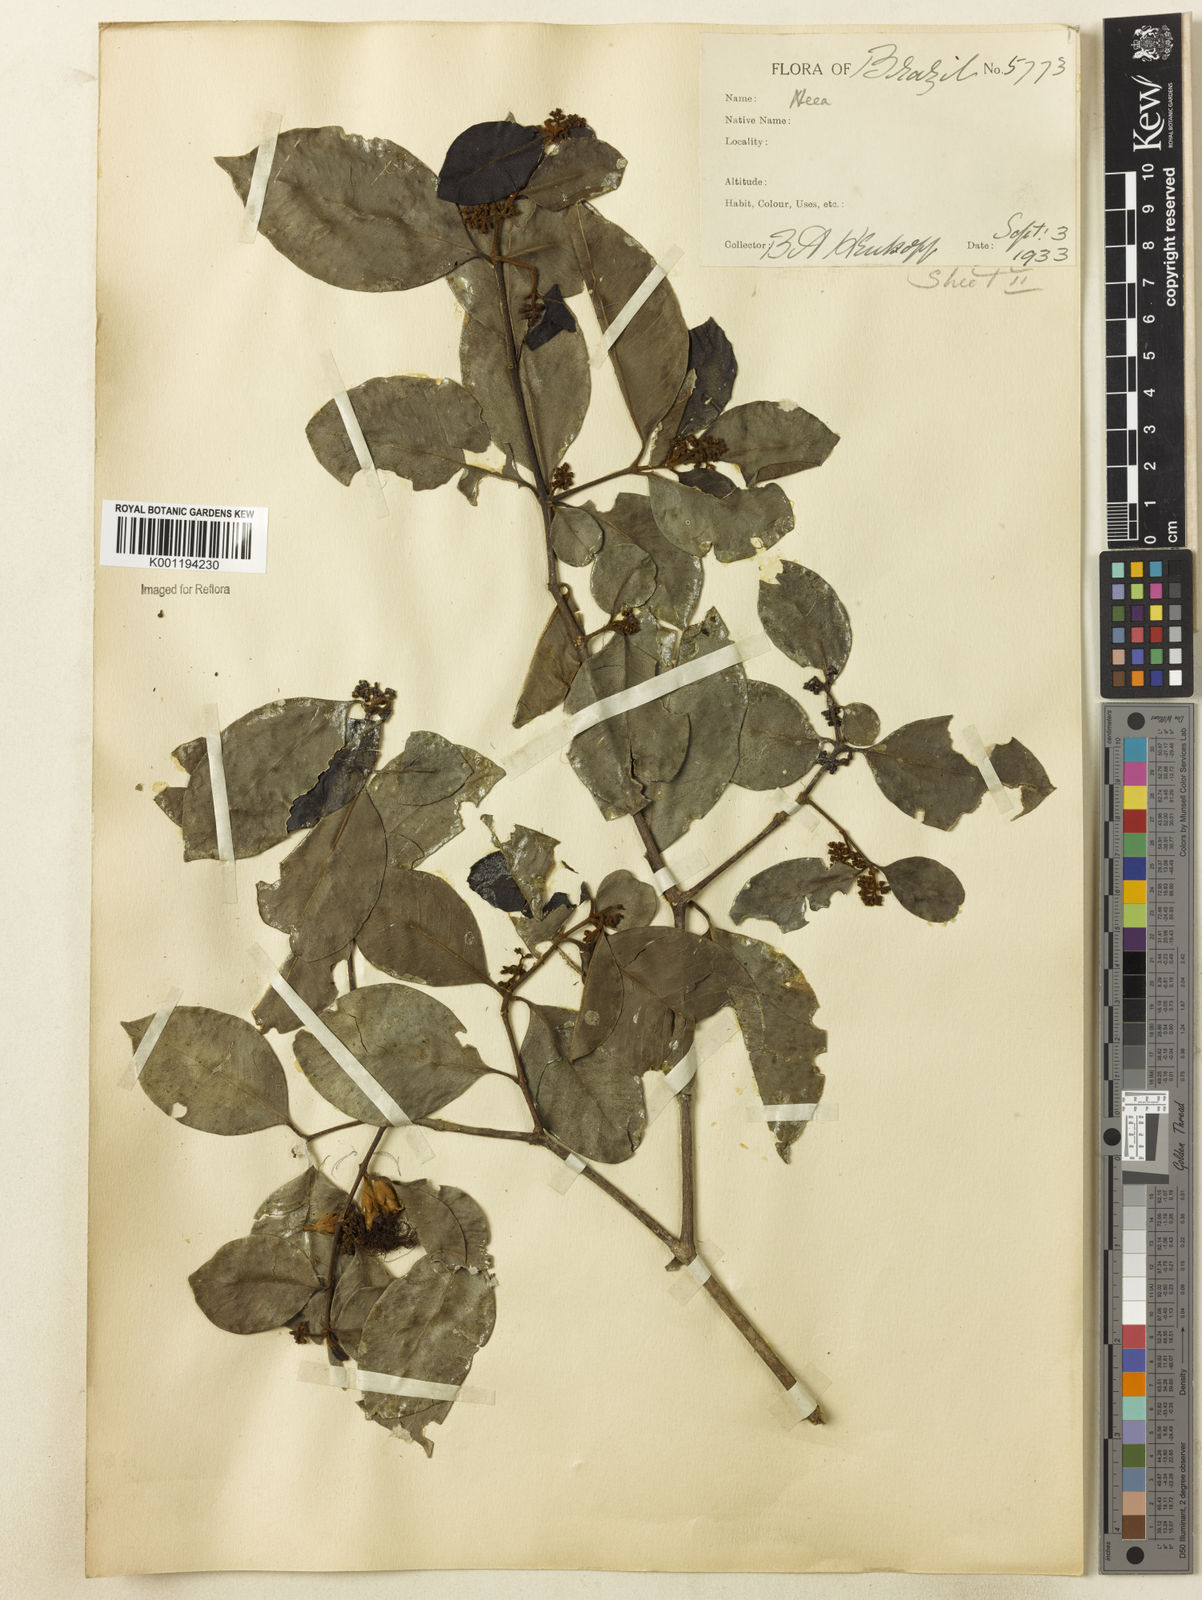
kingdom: Plantae
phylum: Tracheophyta
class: Magnoliopsida
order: Caryophyllales
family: Nyctaginaceae
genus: Neea
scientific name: Neea ovalifolia
